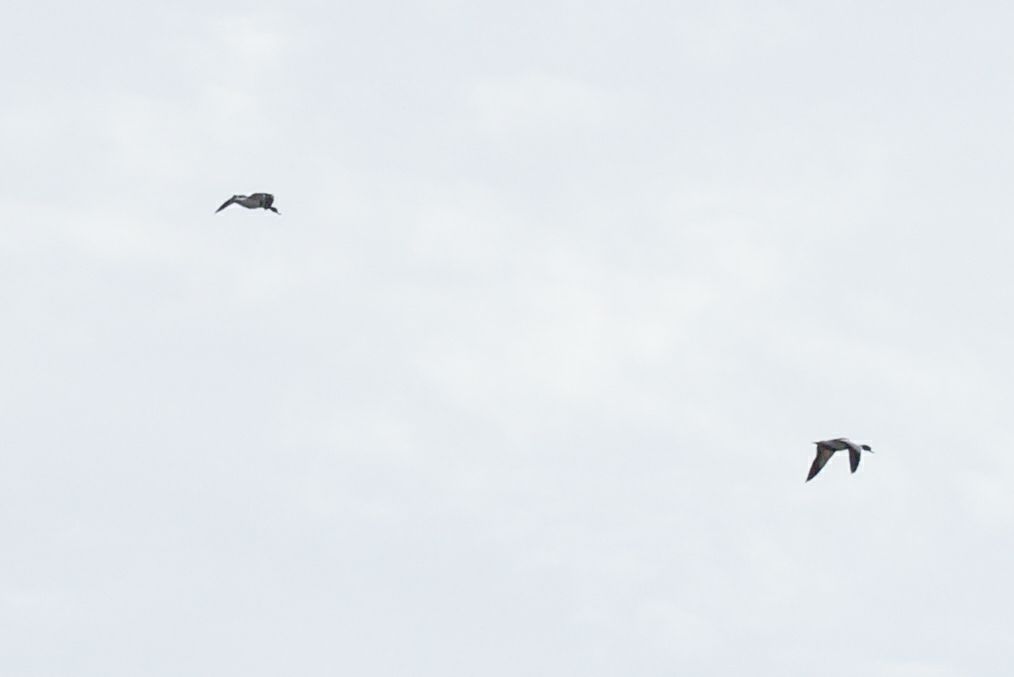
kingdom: Animalia
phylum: Chordata
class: Aves
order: Anseriformes
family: Anatidae
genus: Tadorna
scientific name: Tadorna tadorna
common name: Gravand
